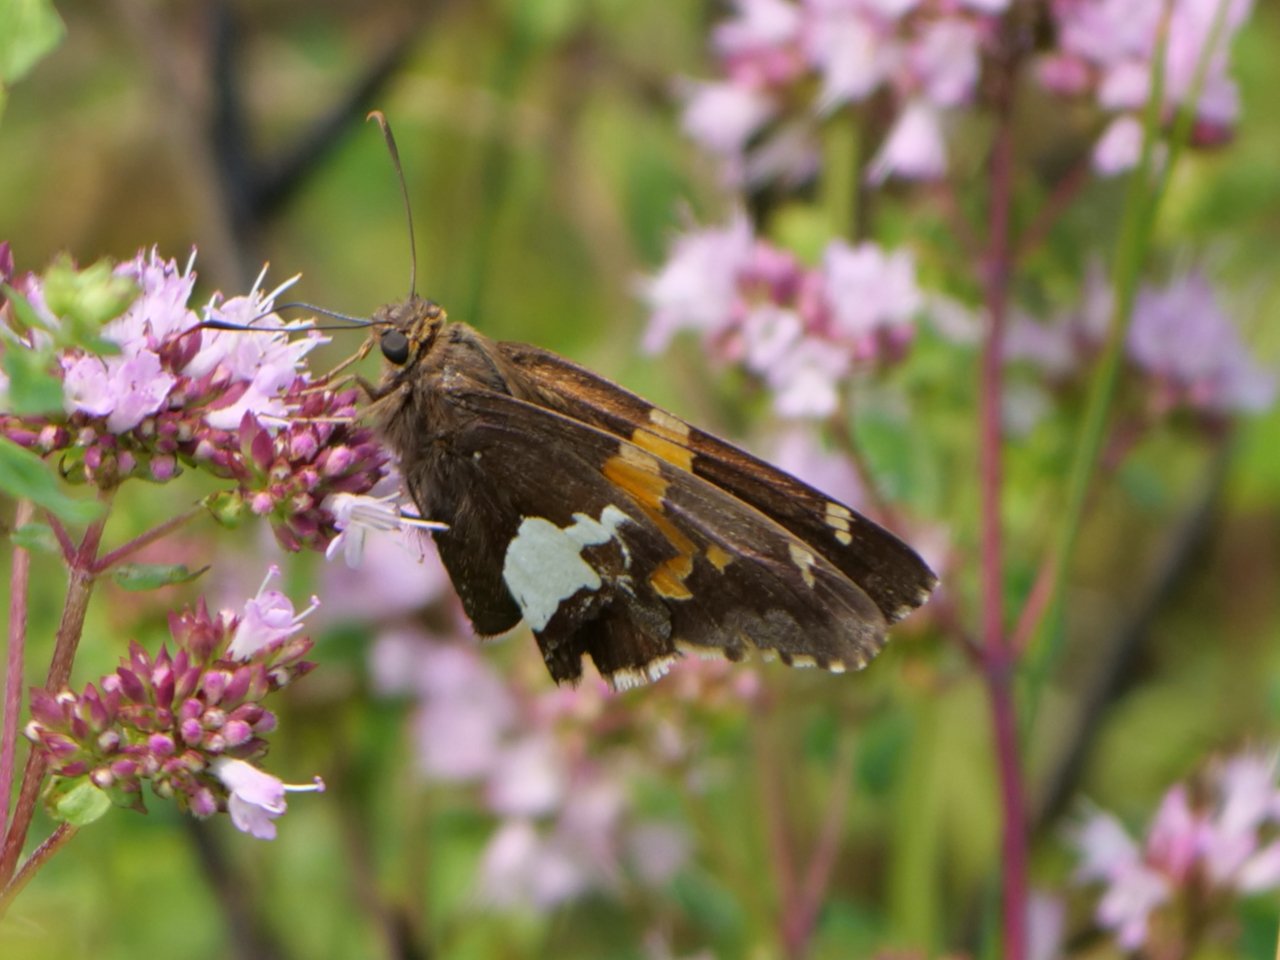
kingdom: Animalia
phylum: Arthropoda
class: Insecta
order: Lepidoptera
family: Hesperiidae
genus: Epargyreus
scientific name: Epargyreus clarus
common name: Silver-spotted Skipper
